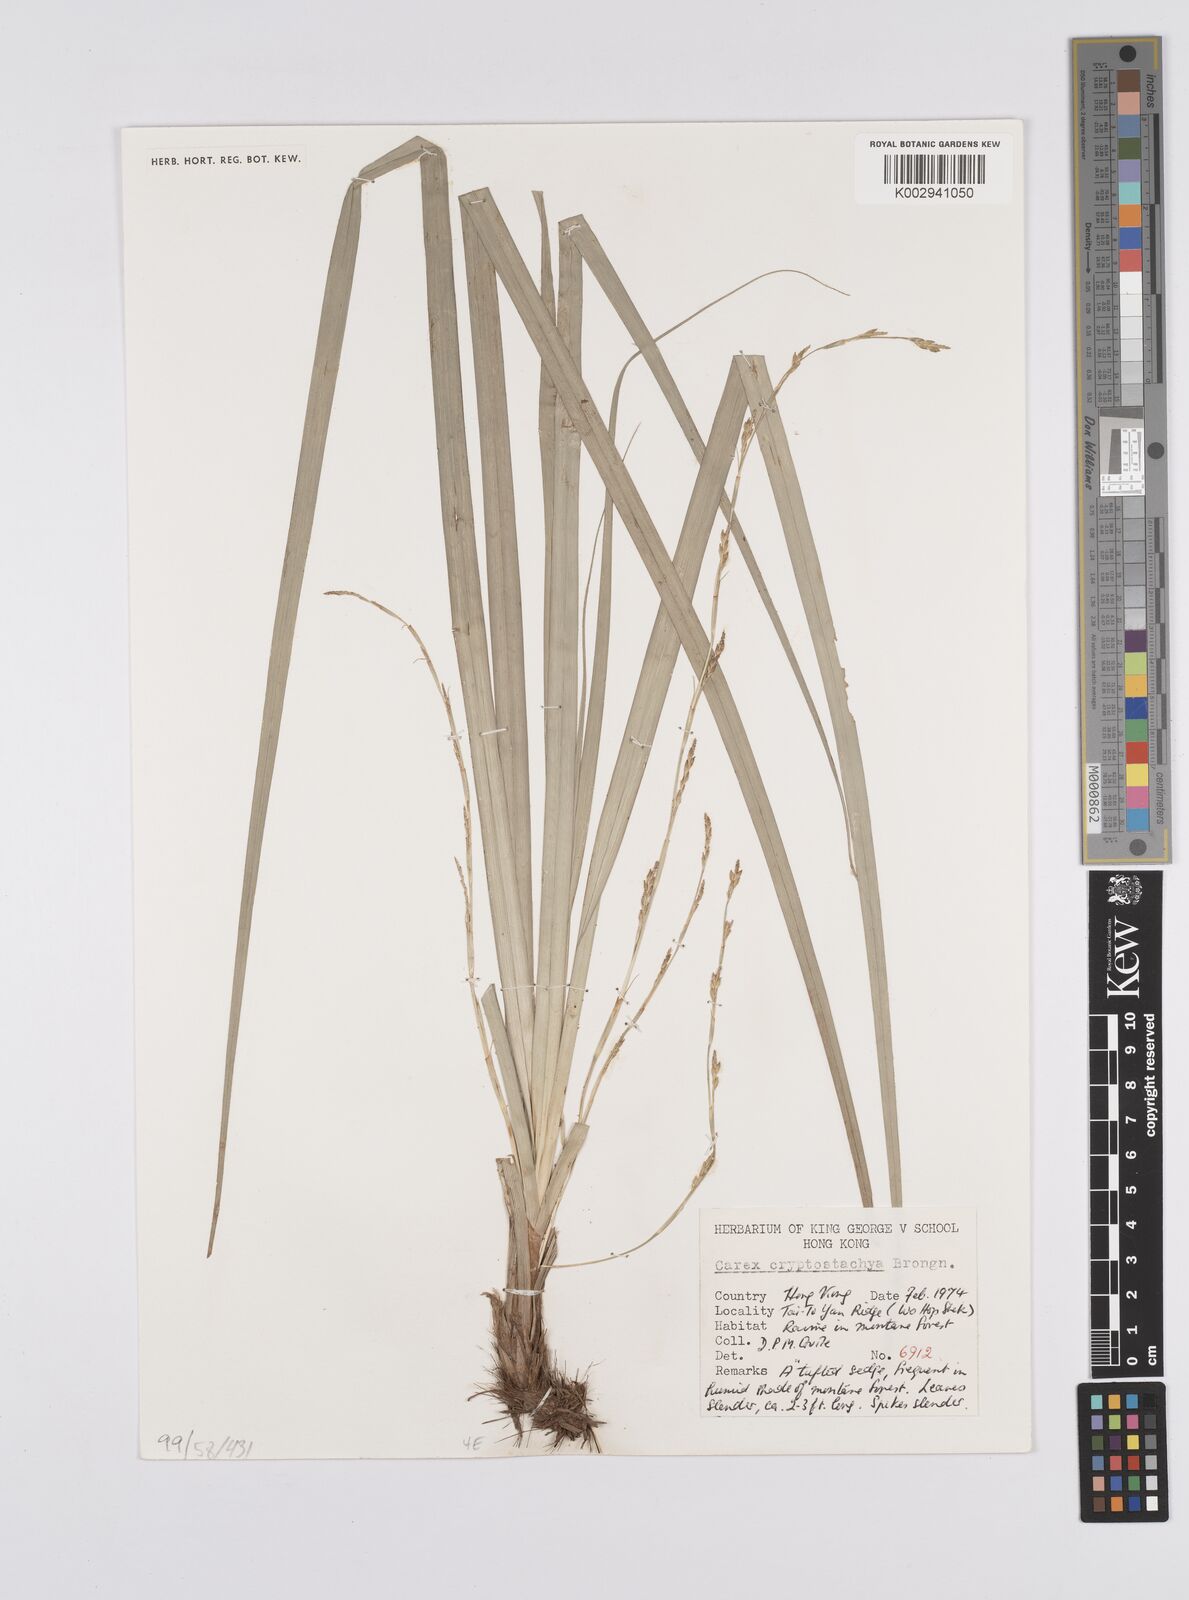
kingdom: Plantae
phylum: Tracheophyta
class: Liliopsida
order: Poales
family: Cyperaceae
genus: Carex
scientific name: Carex cryptostachys
